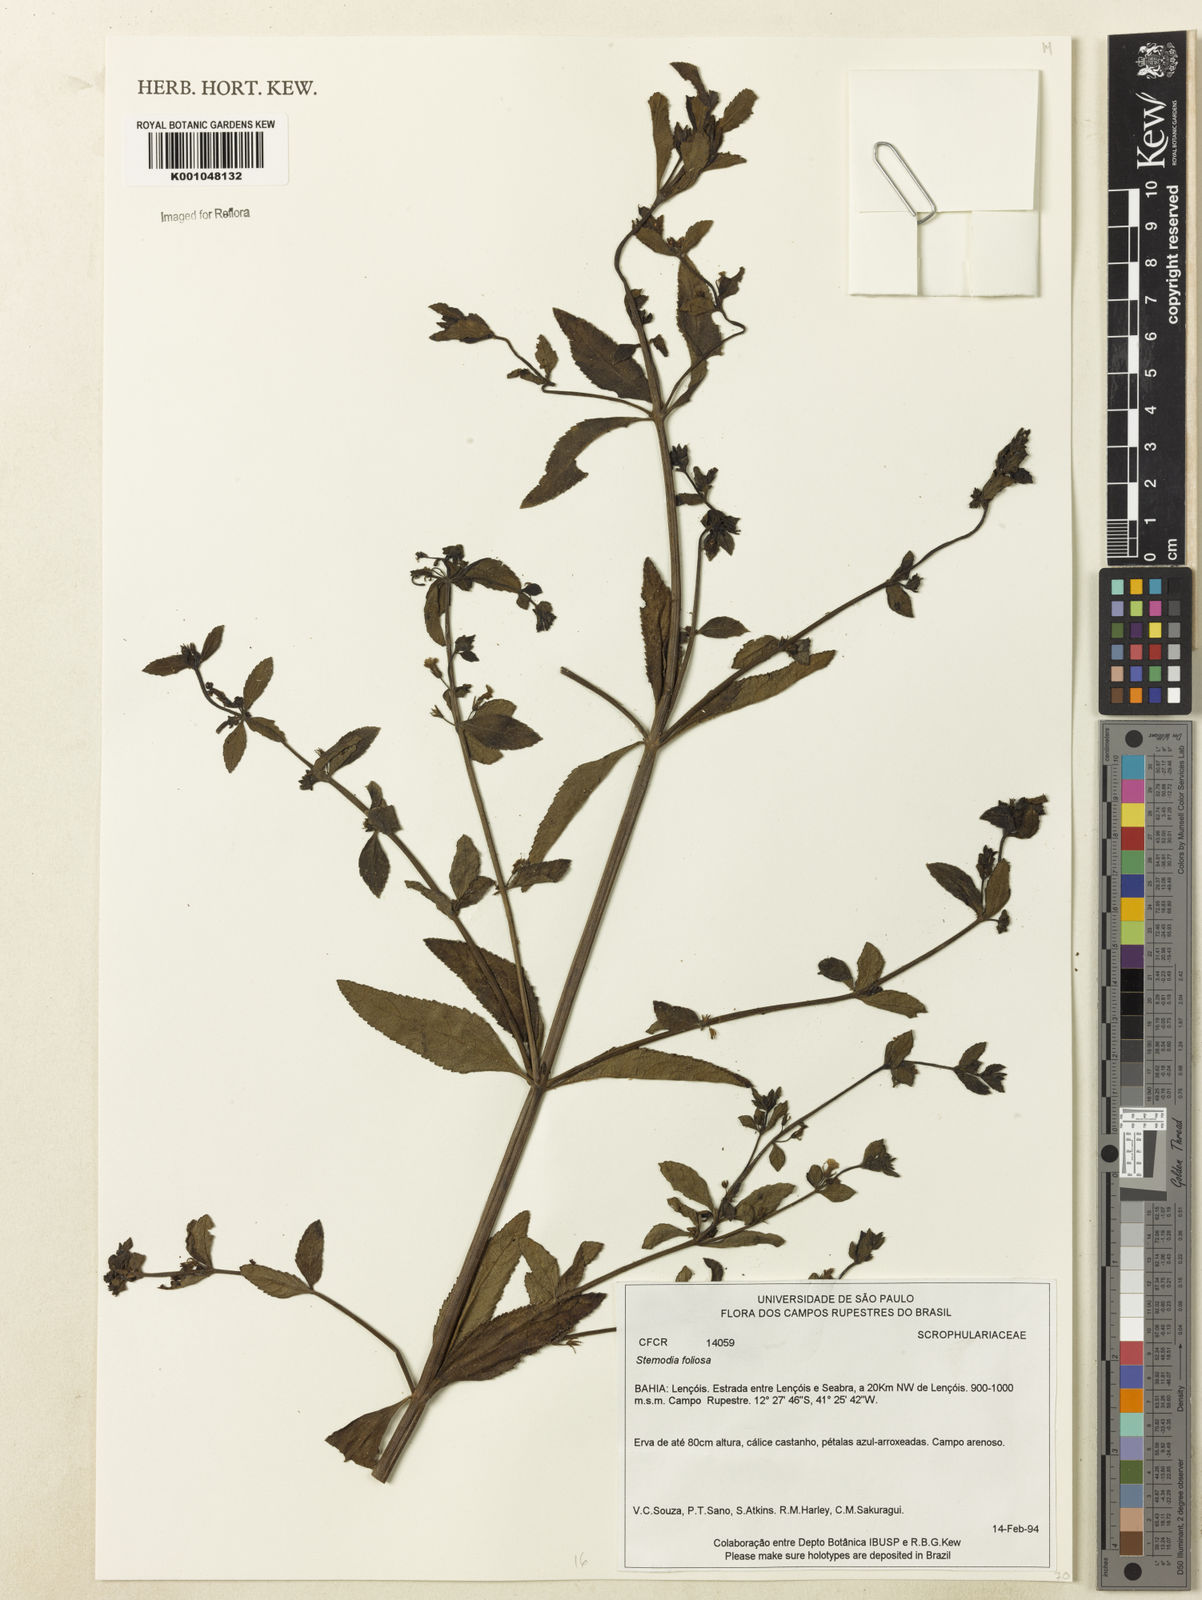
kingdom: Plantae
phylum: Tracheophyta
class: Magnoliopsida
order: Lamiales
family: Plantaginaceae
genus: Stemodia
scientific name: Stemodia foliosa
